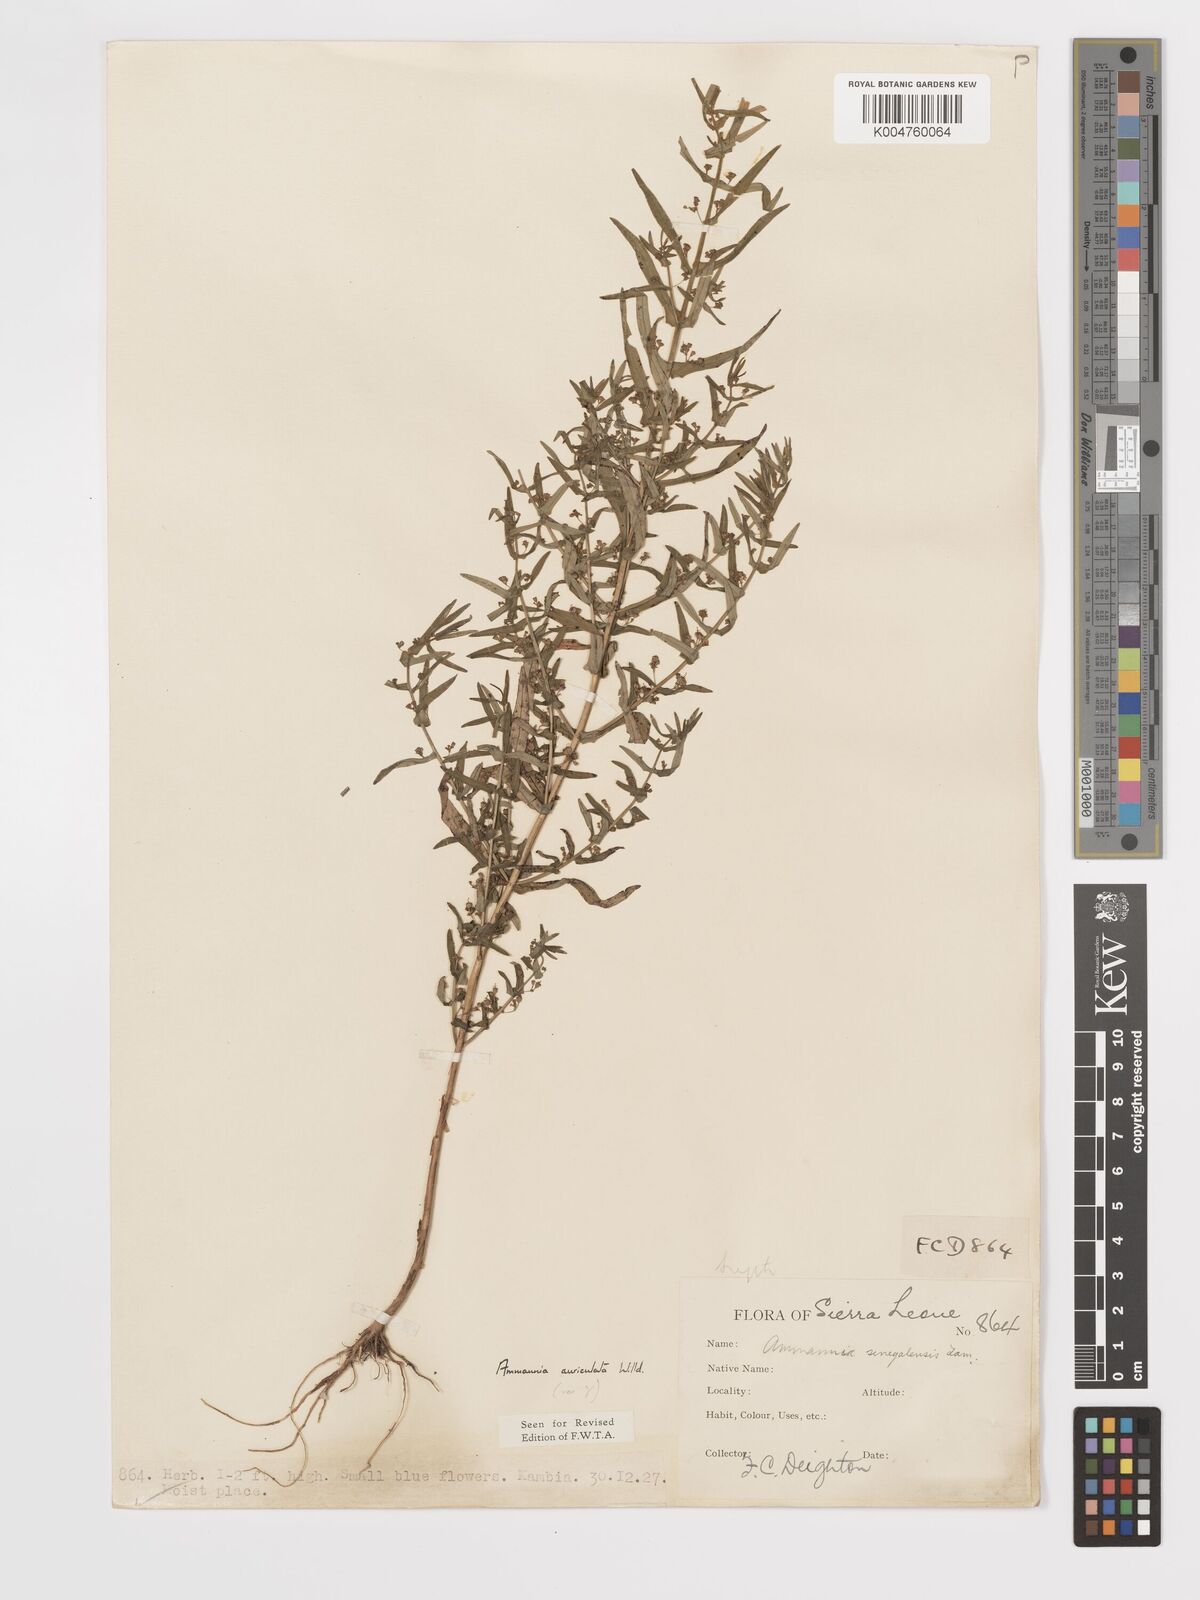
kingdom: Plantae
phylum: Tracheophyta
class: Magnoliopsida
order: Myrtales
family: Lythraceae
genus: Ammannia
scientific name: Ammannia auriculata
